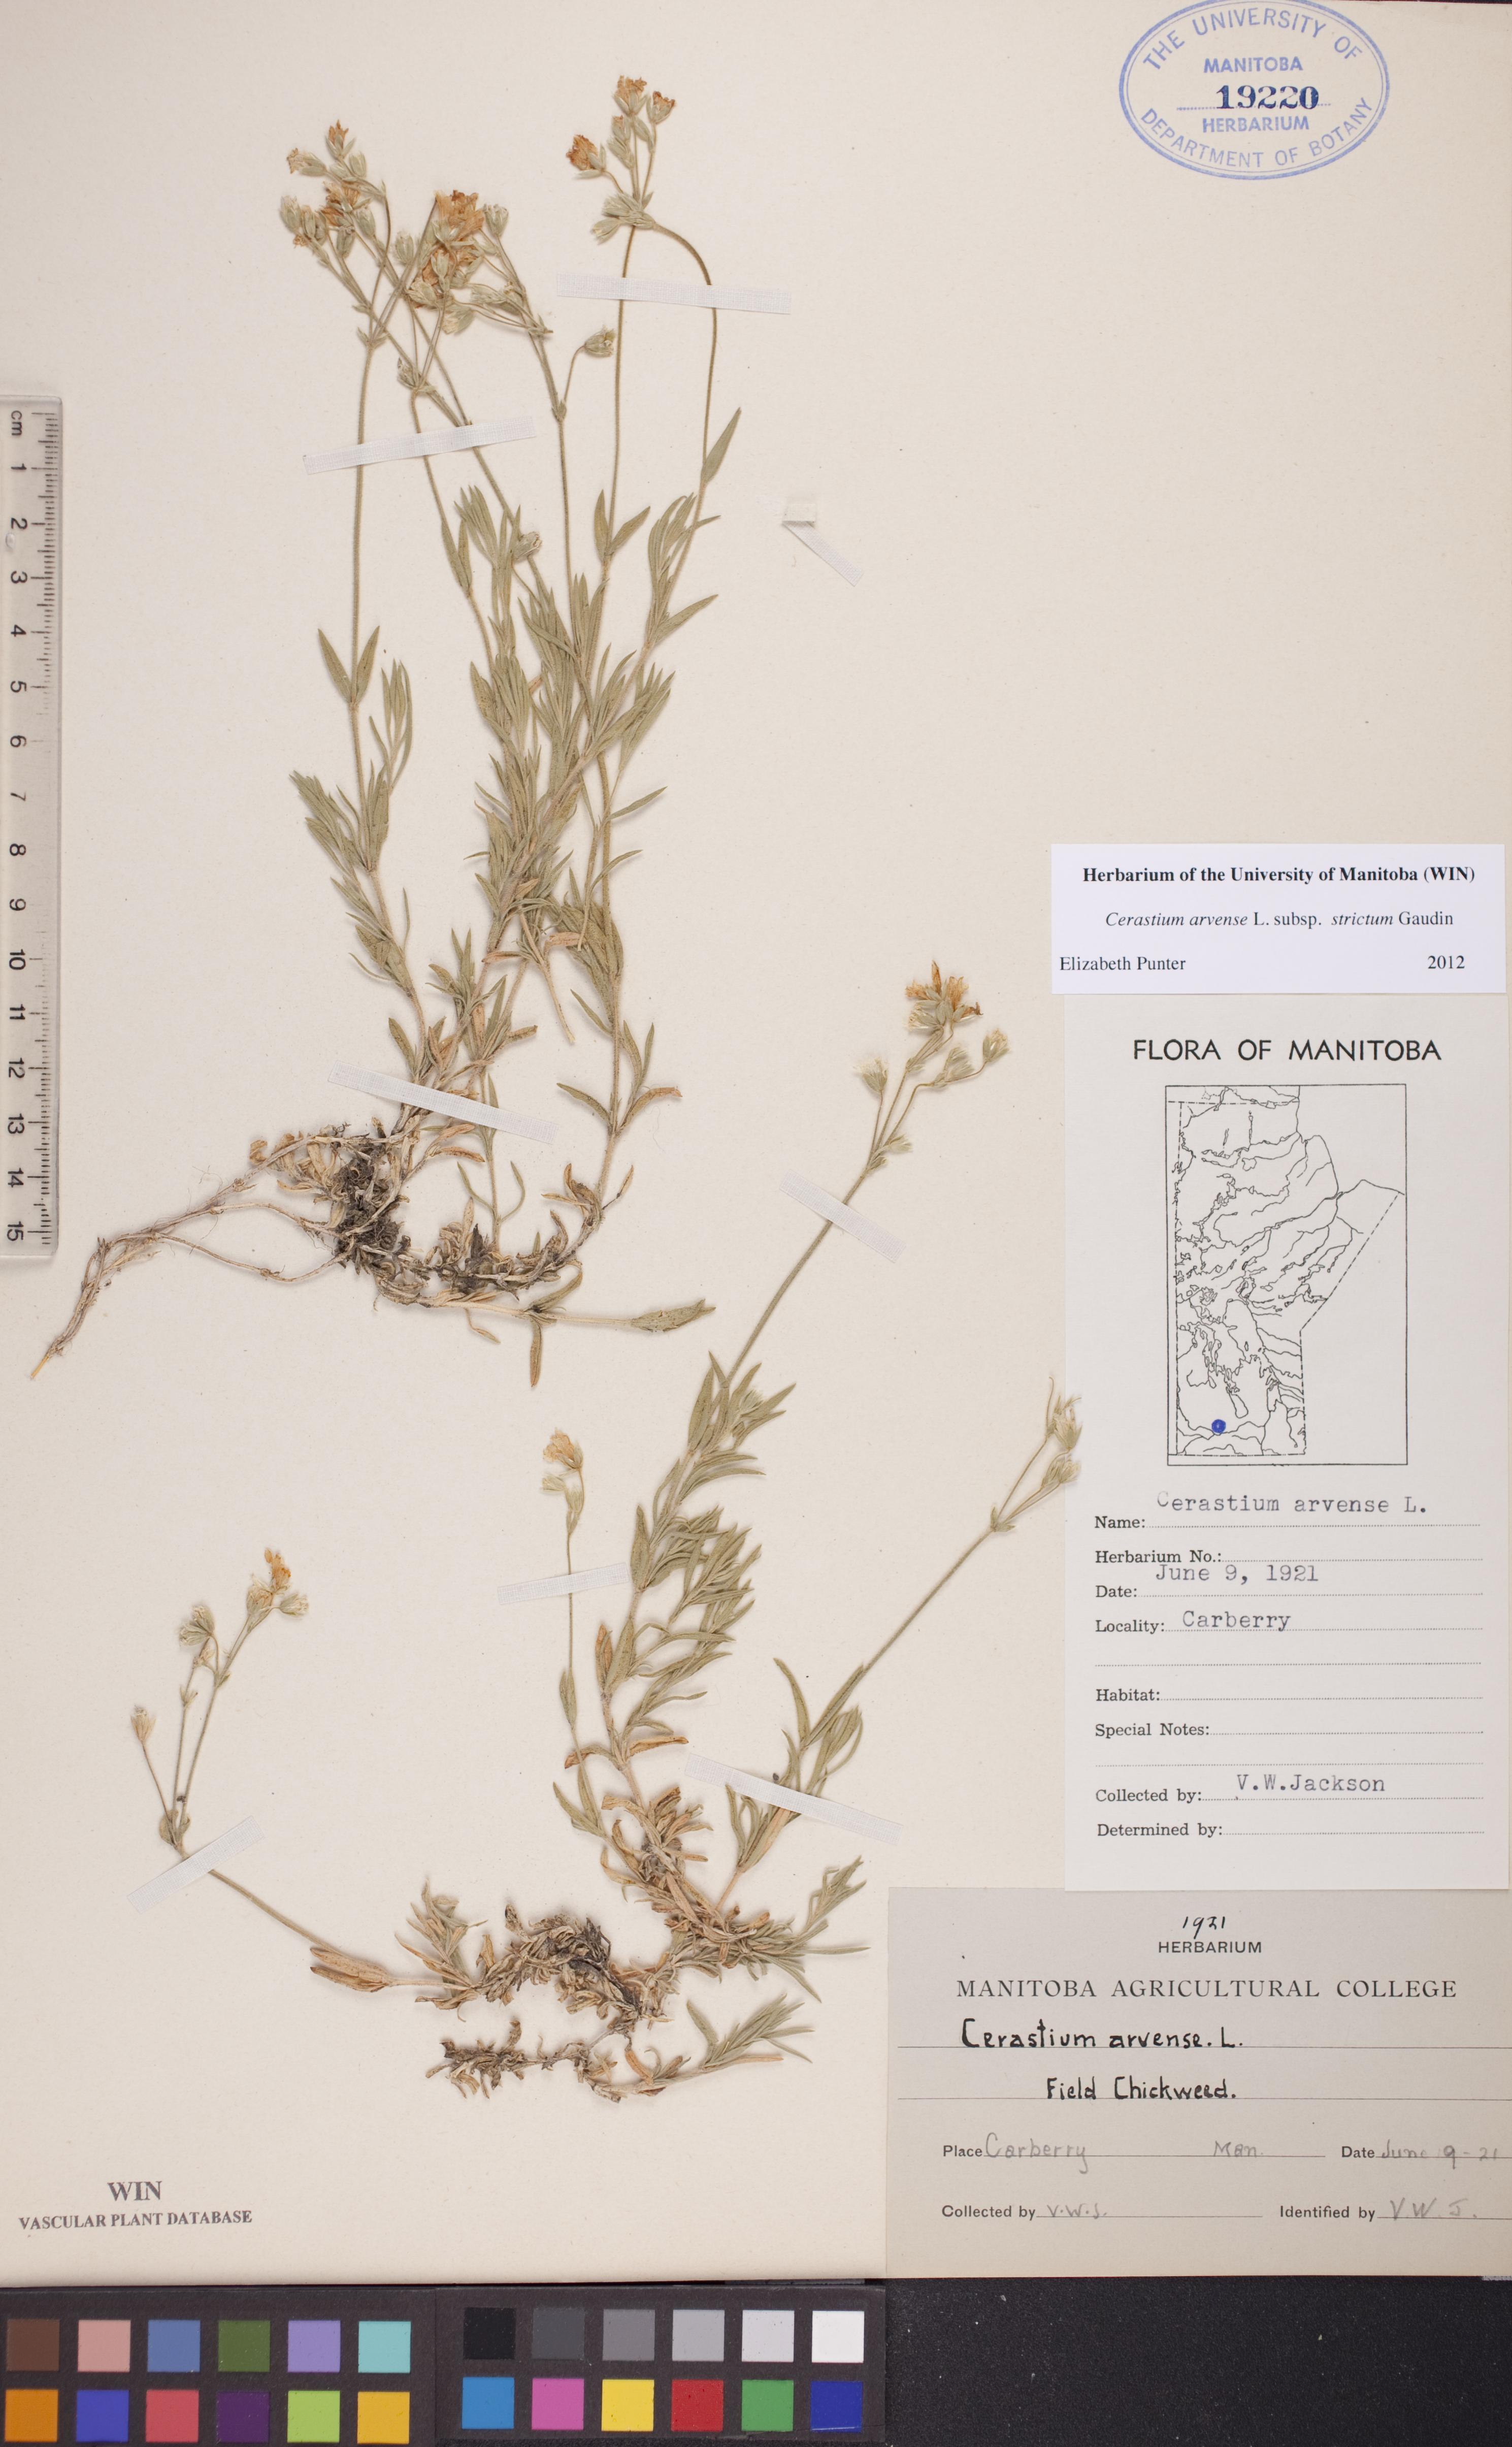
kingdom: Plantae
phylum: Tracheophyta
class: Magnoliopsida
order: Caryophyllales
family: Caryophyllaceae
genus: Cerastium
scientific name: Cerastium elongatum
